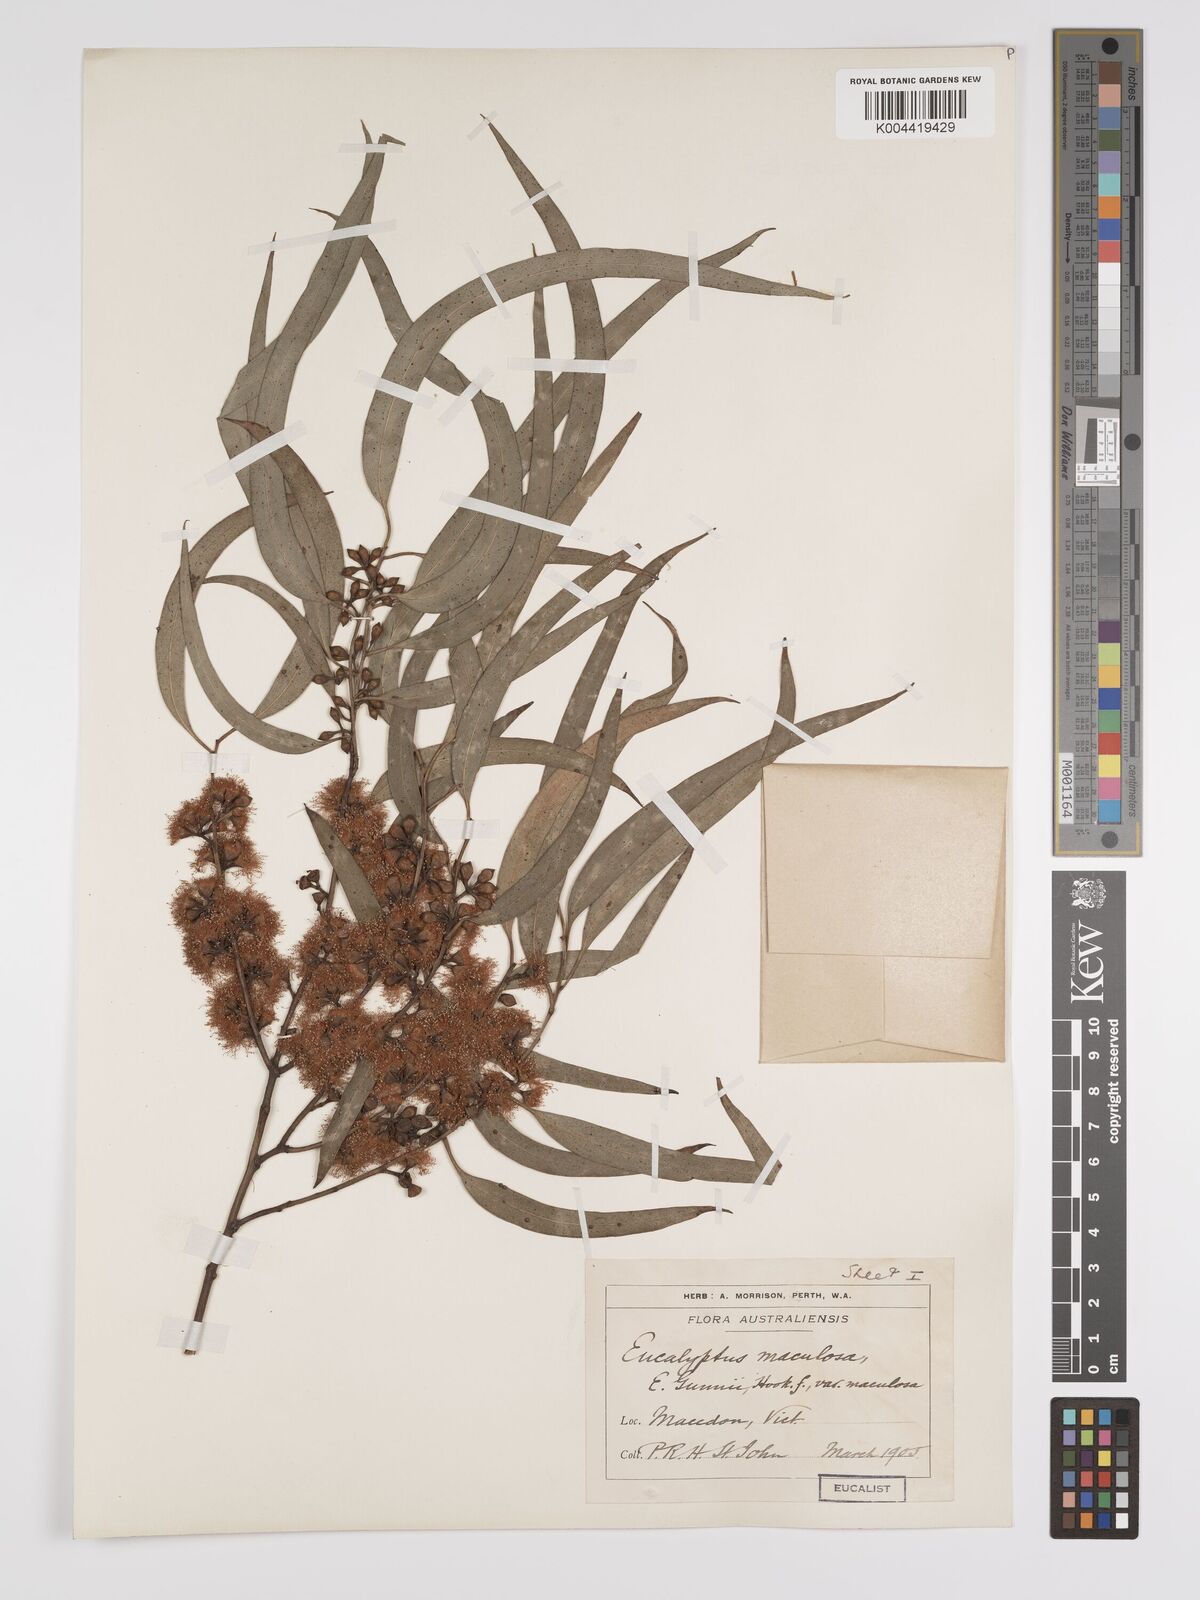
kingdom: Plantae
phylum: Tracheophyta
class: Magnoliopsida
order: Myrtales
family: Myrtaceae
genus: Eucalyptus
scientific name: Eucalyptus mannifera
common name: Manna gum
